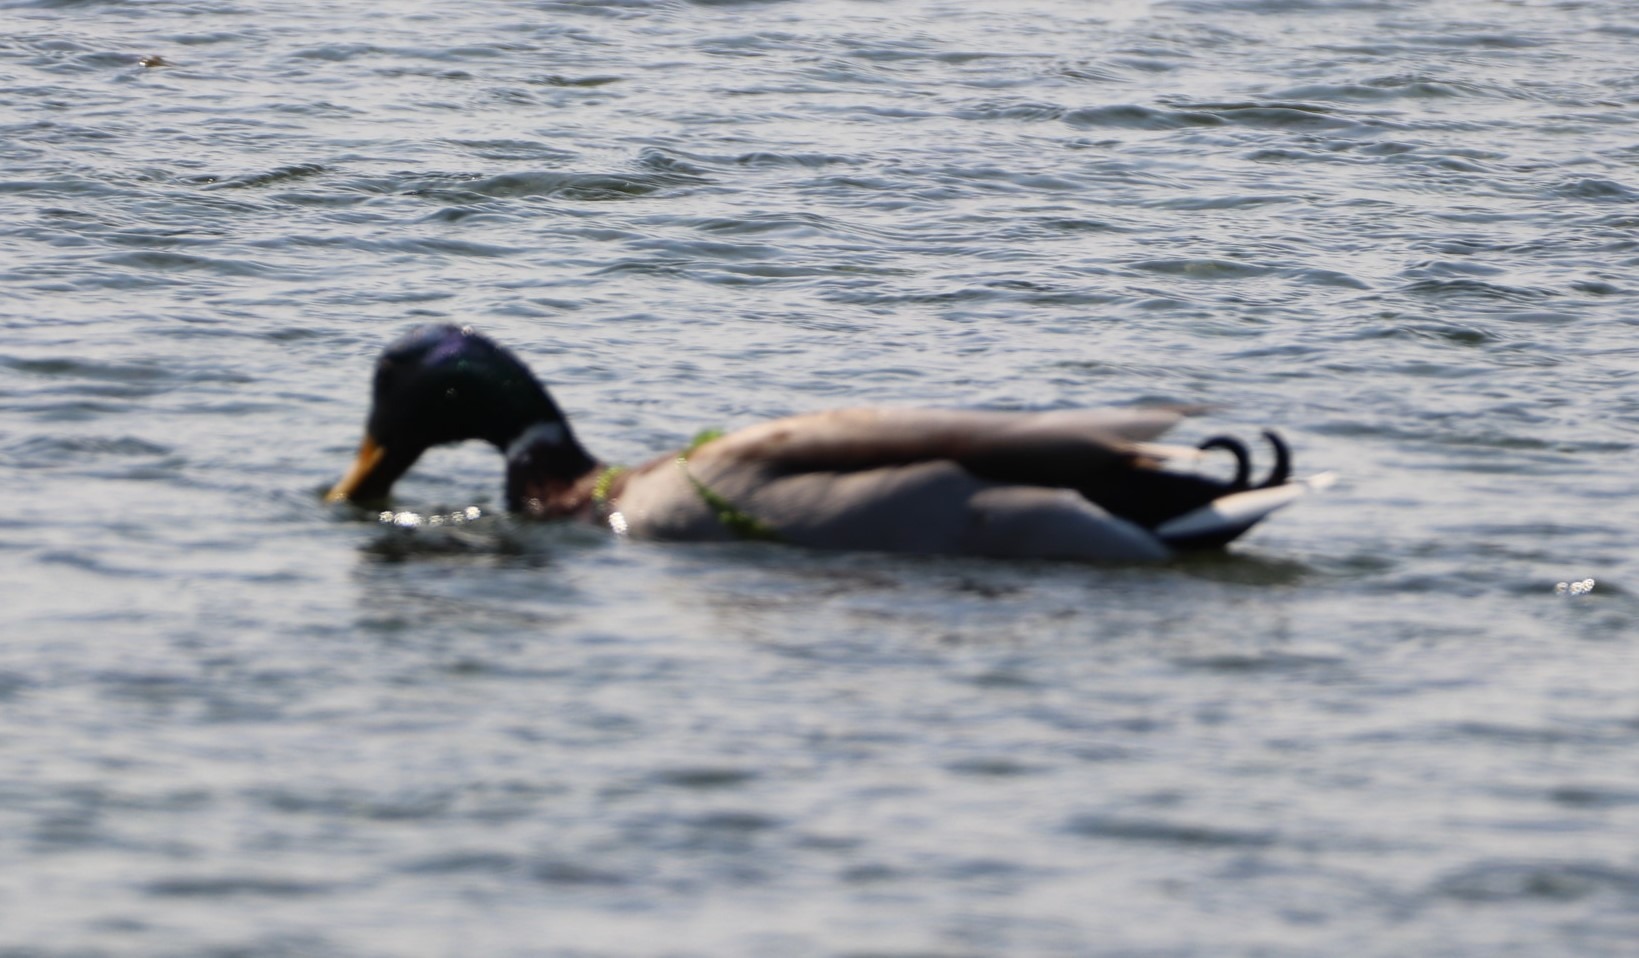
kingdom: Animalia
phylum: Chordata
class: Aves
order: Anseriformes
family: Anatidae
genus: Anas
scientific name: Anas platyrhynchos
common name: Gråand
